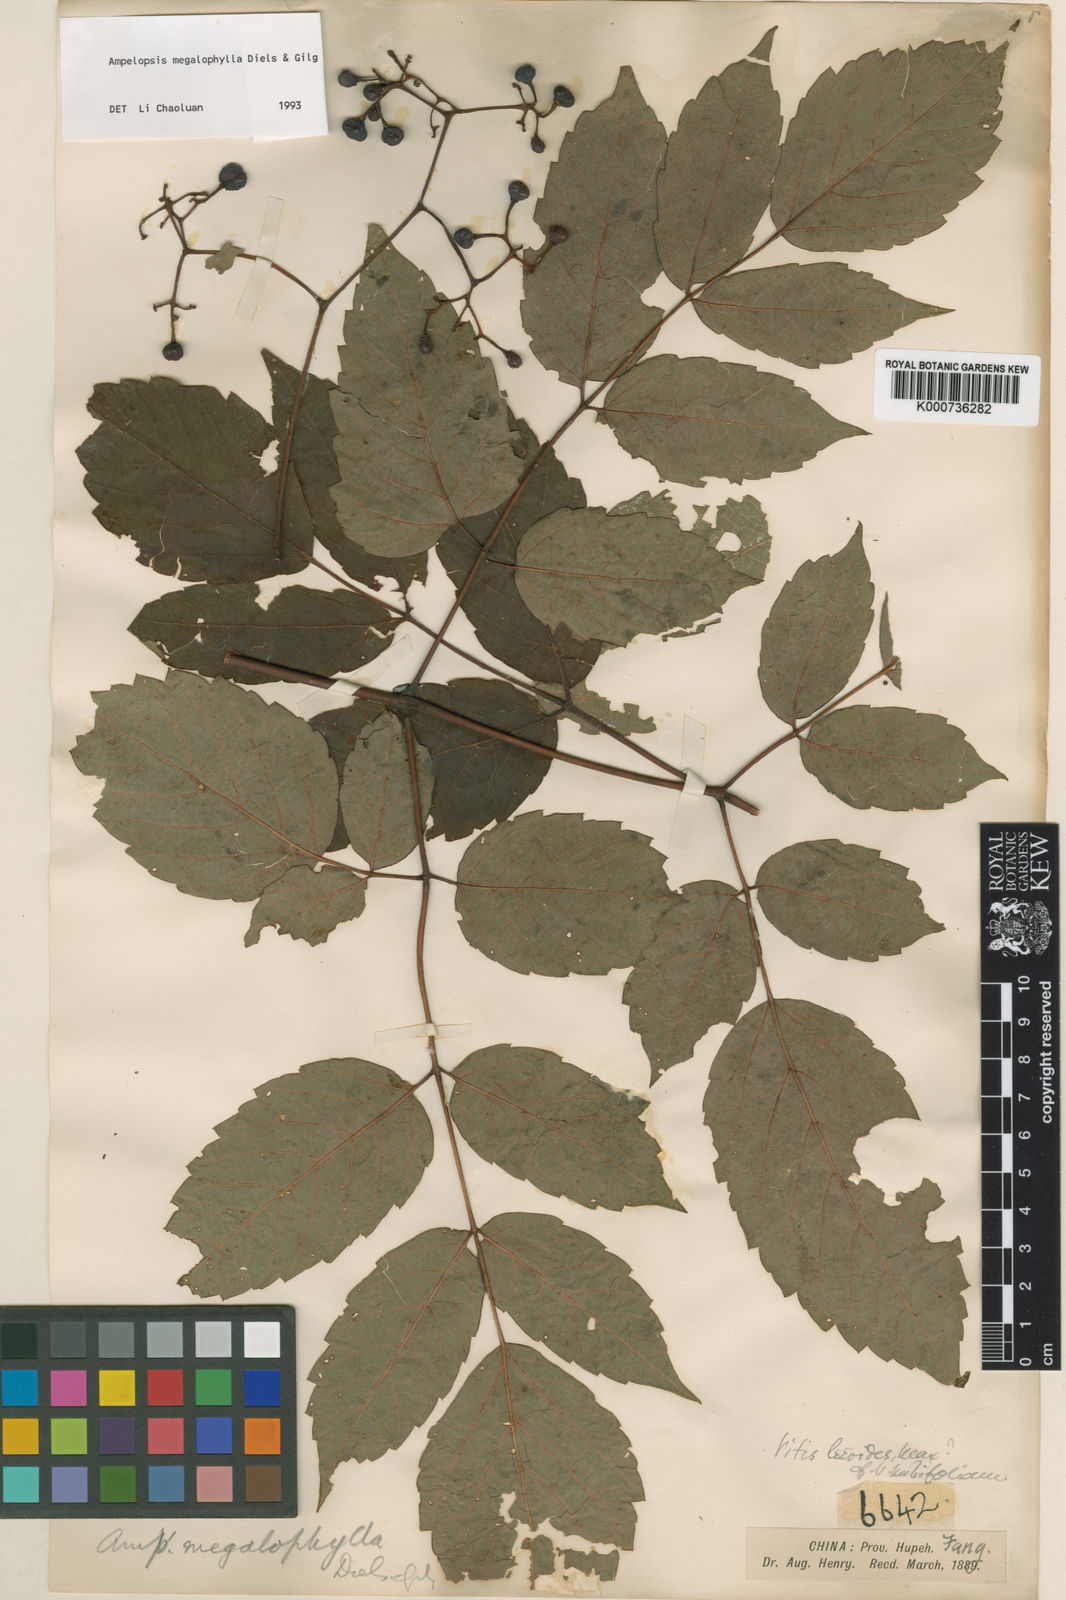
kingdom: Plantae
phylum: Tracheophyta
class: Magnoliopsida
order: Vitales
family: Vitaceae
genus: Nekemias
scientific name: Nekemias megalophylla
